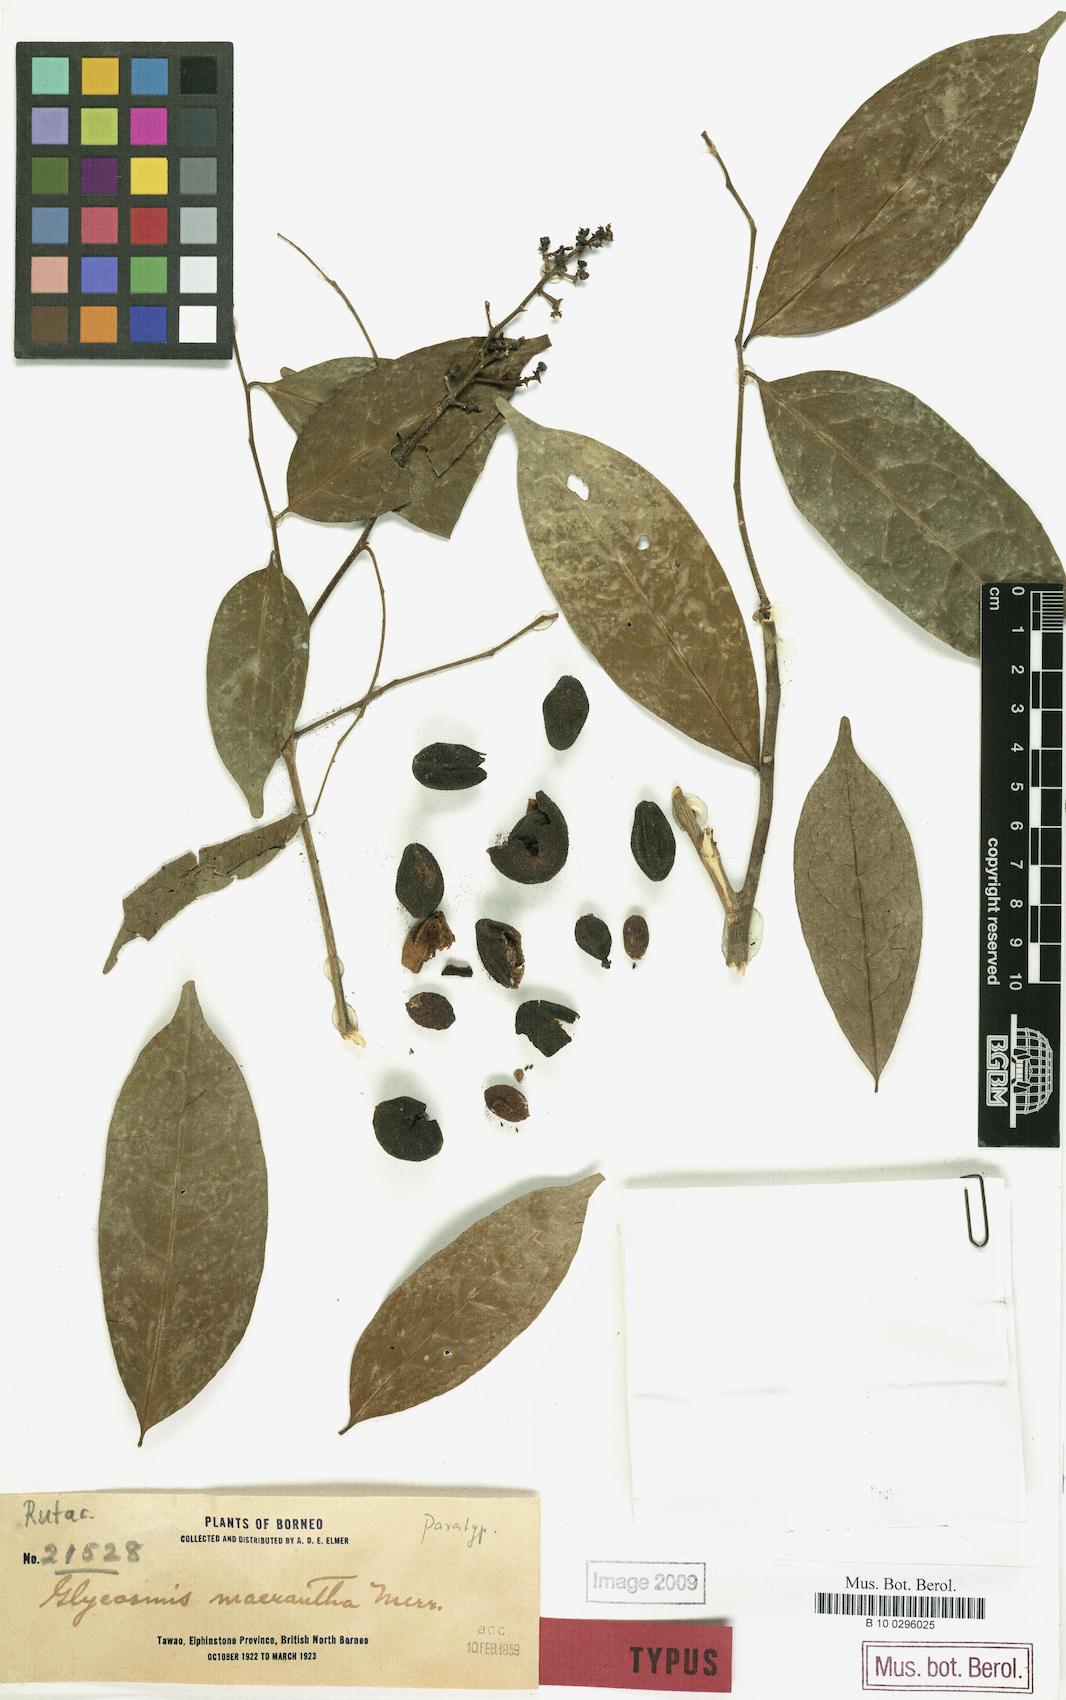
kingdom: Plantae
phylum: Tracheophyta
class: Magnoliopsida
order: Sapindales
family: Rutaceae
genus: Glycosmis
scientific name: Glycosmis macrantha
